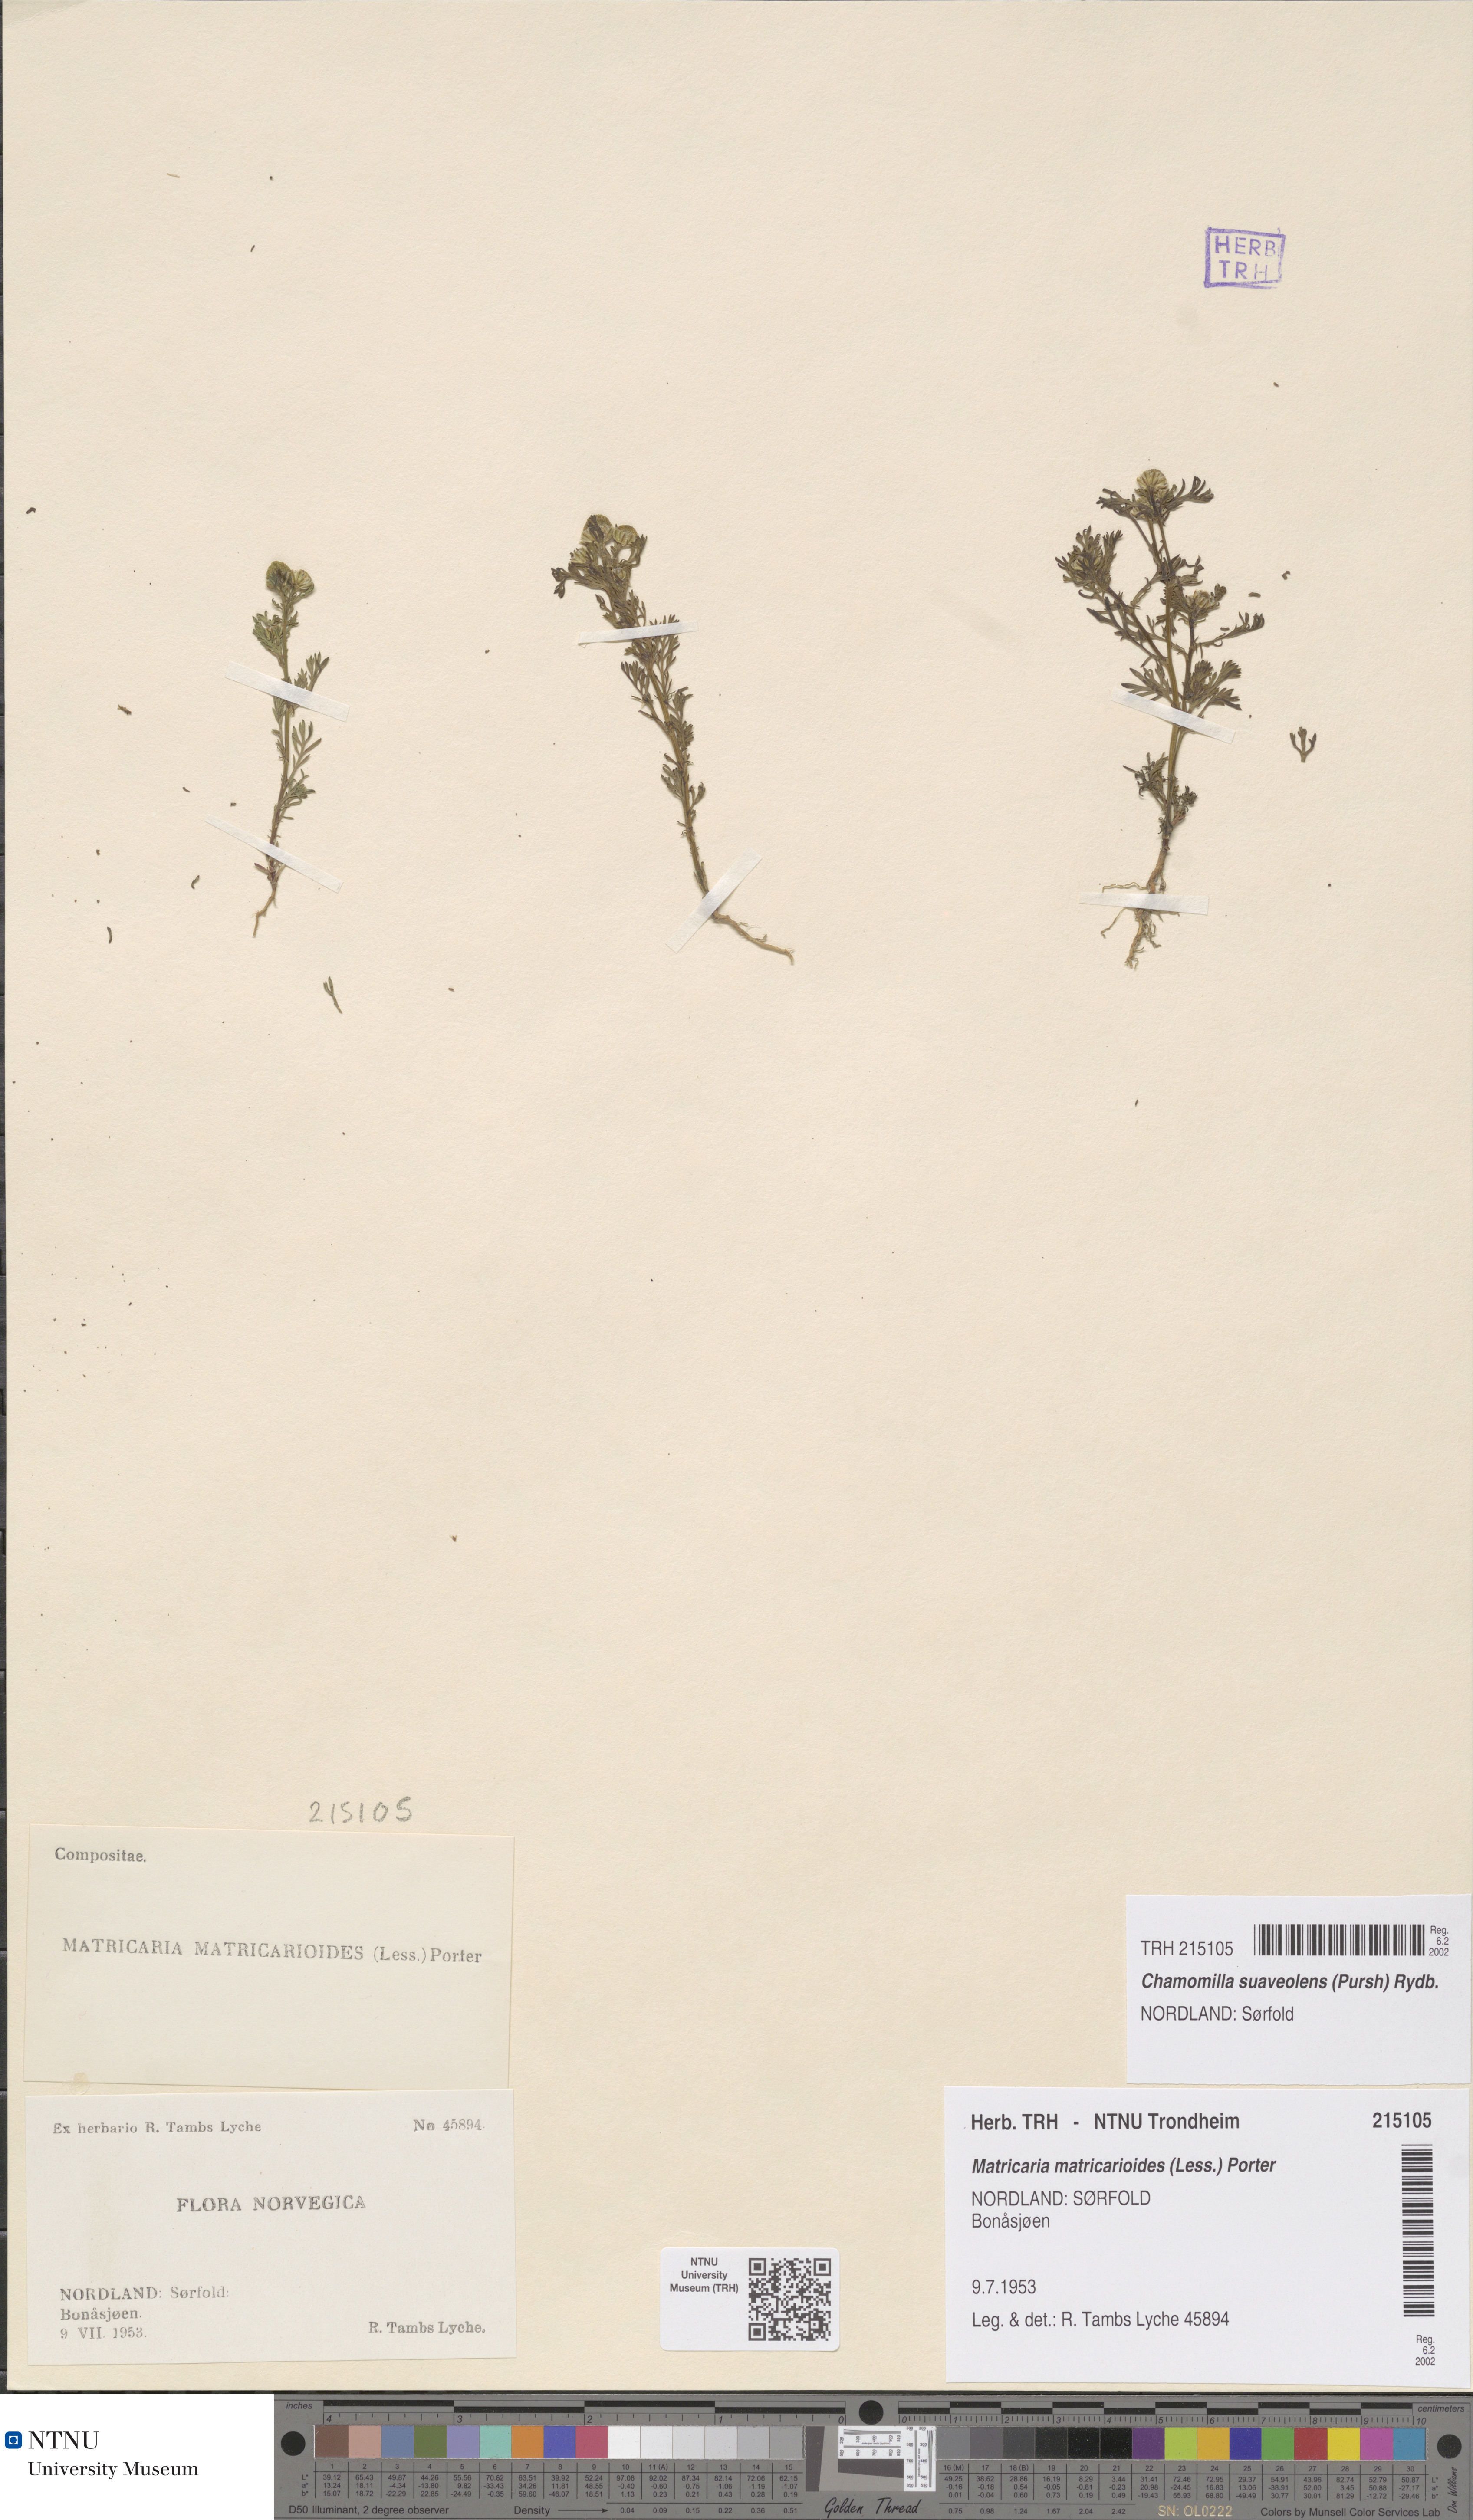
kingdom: Plantae
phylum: Tracheophyta
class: Magnoliopsida
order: Asterales
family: Asteraceae
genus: Matricaria
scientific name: Matricaria discoidea
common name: Disc mayweed
